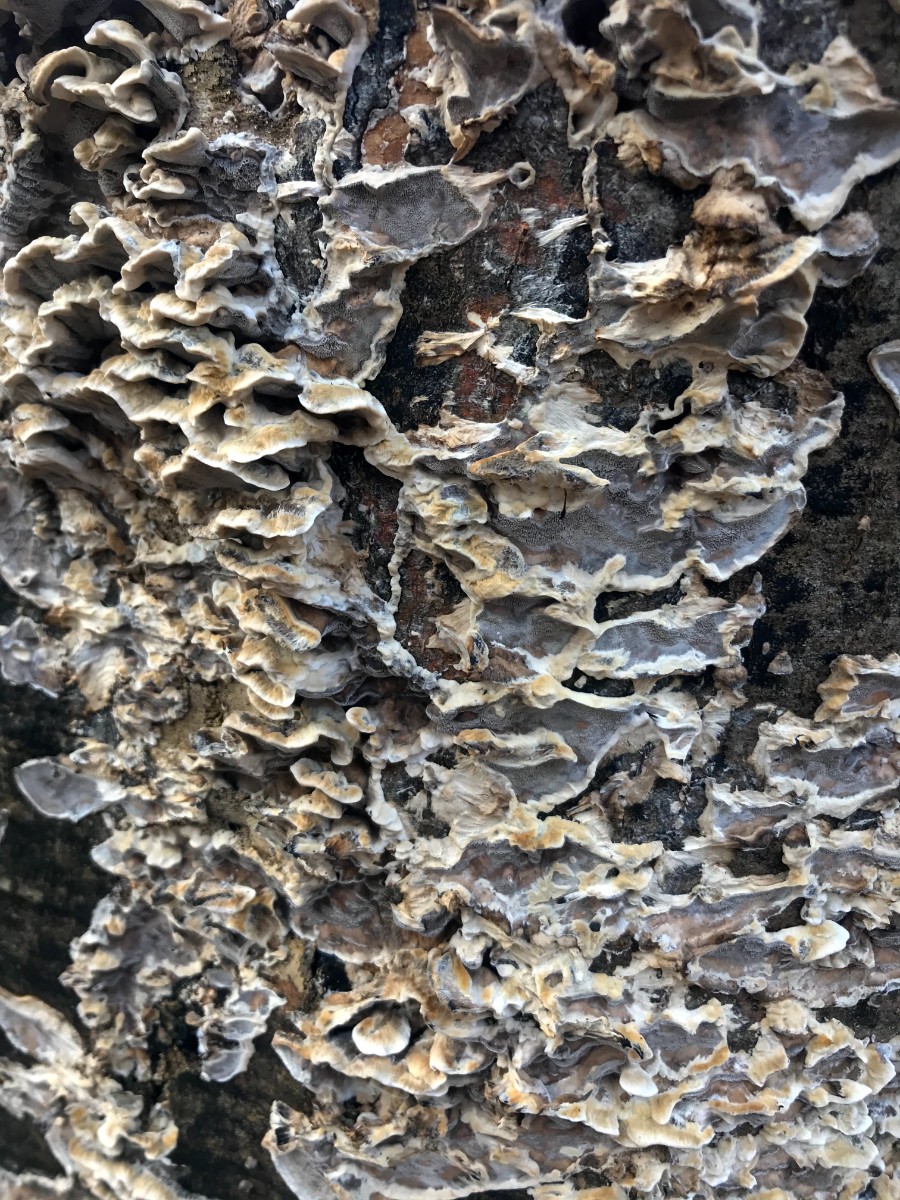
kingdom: Fungi
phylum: Basidiomycota
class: Agaricomycetes
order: Polyporales
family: Phanerochaetaceae
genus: Bjerkandera
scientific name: Bjerkandera adusta
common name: sveden sodporesvamp
